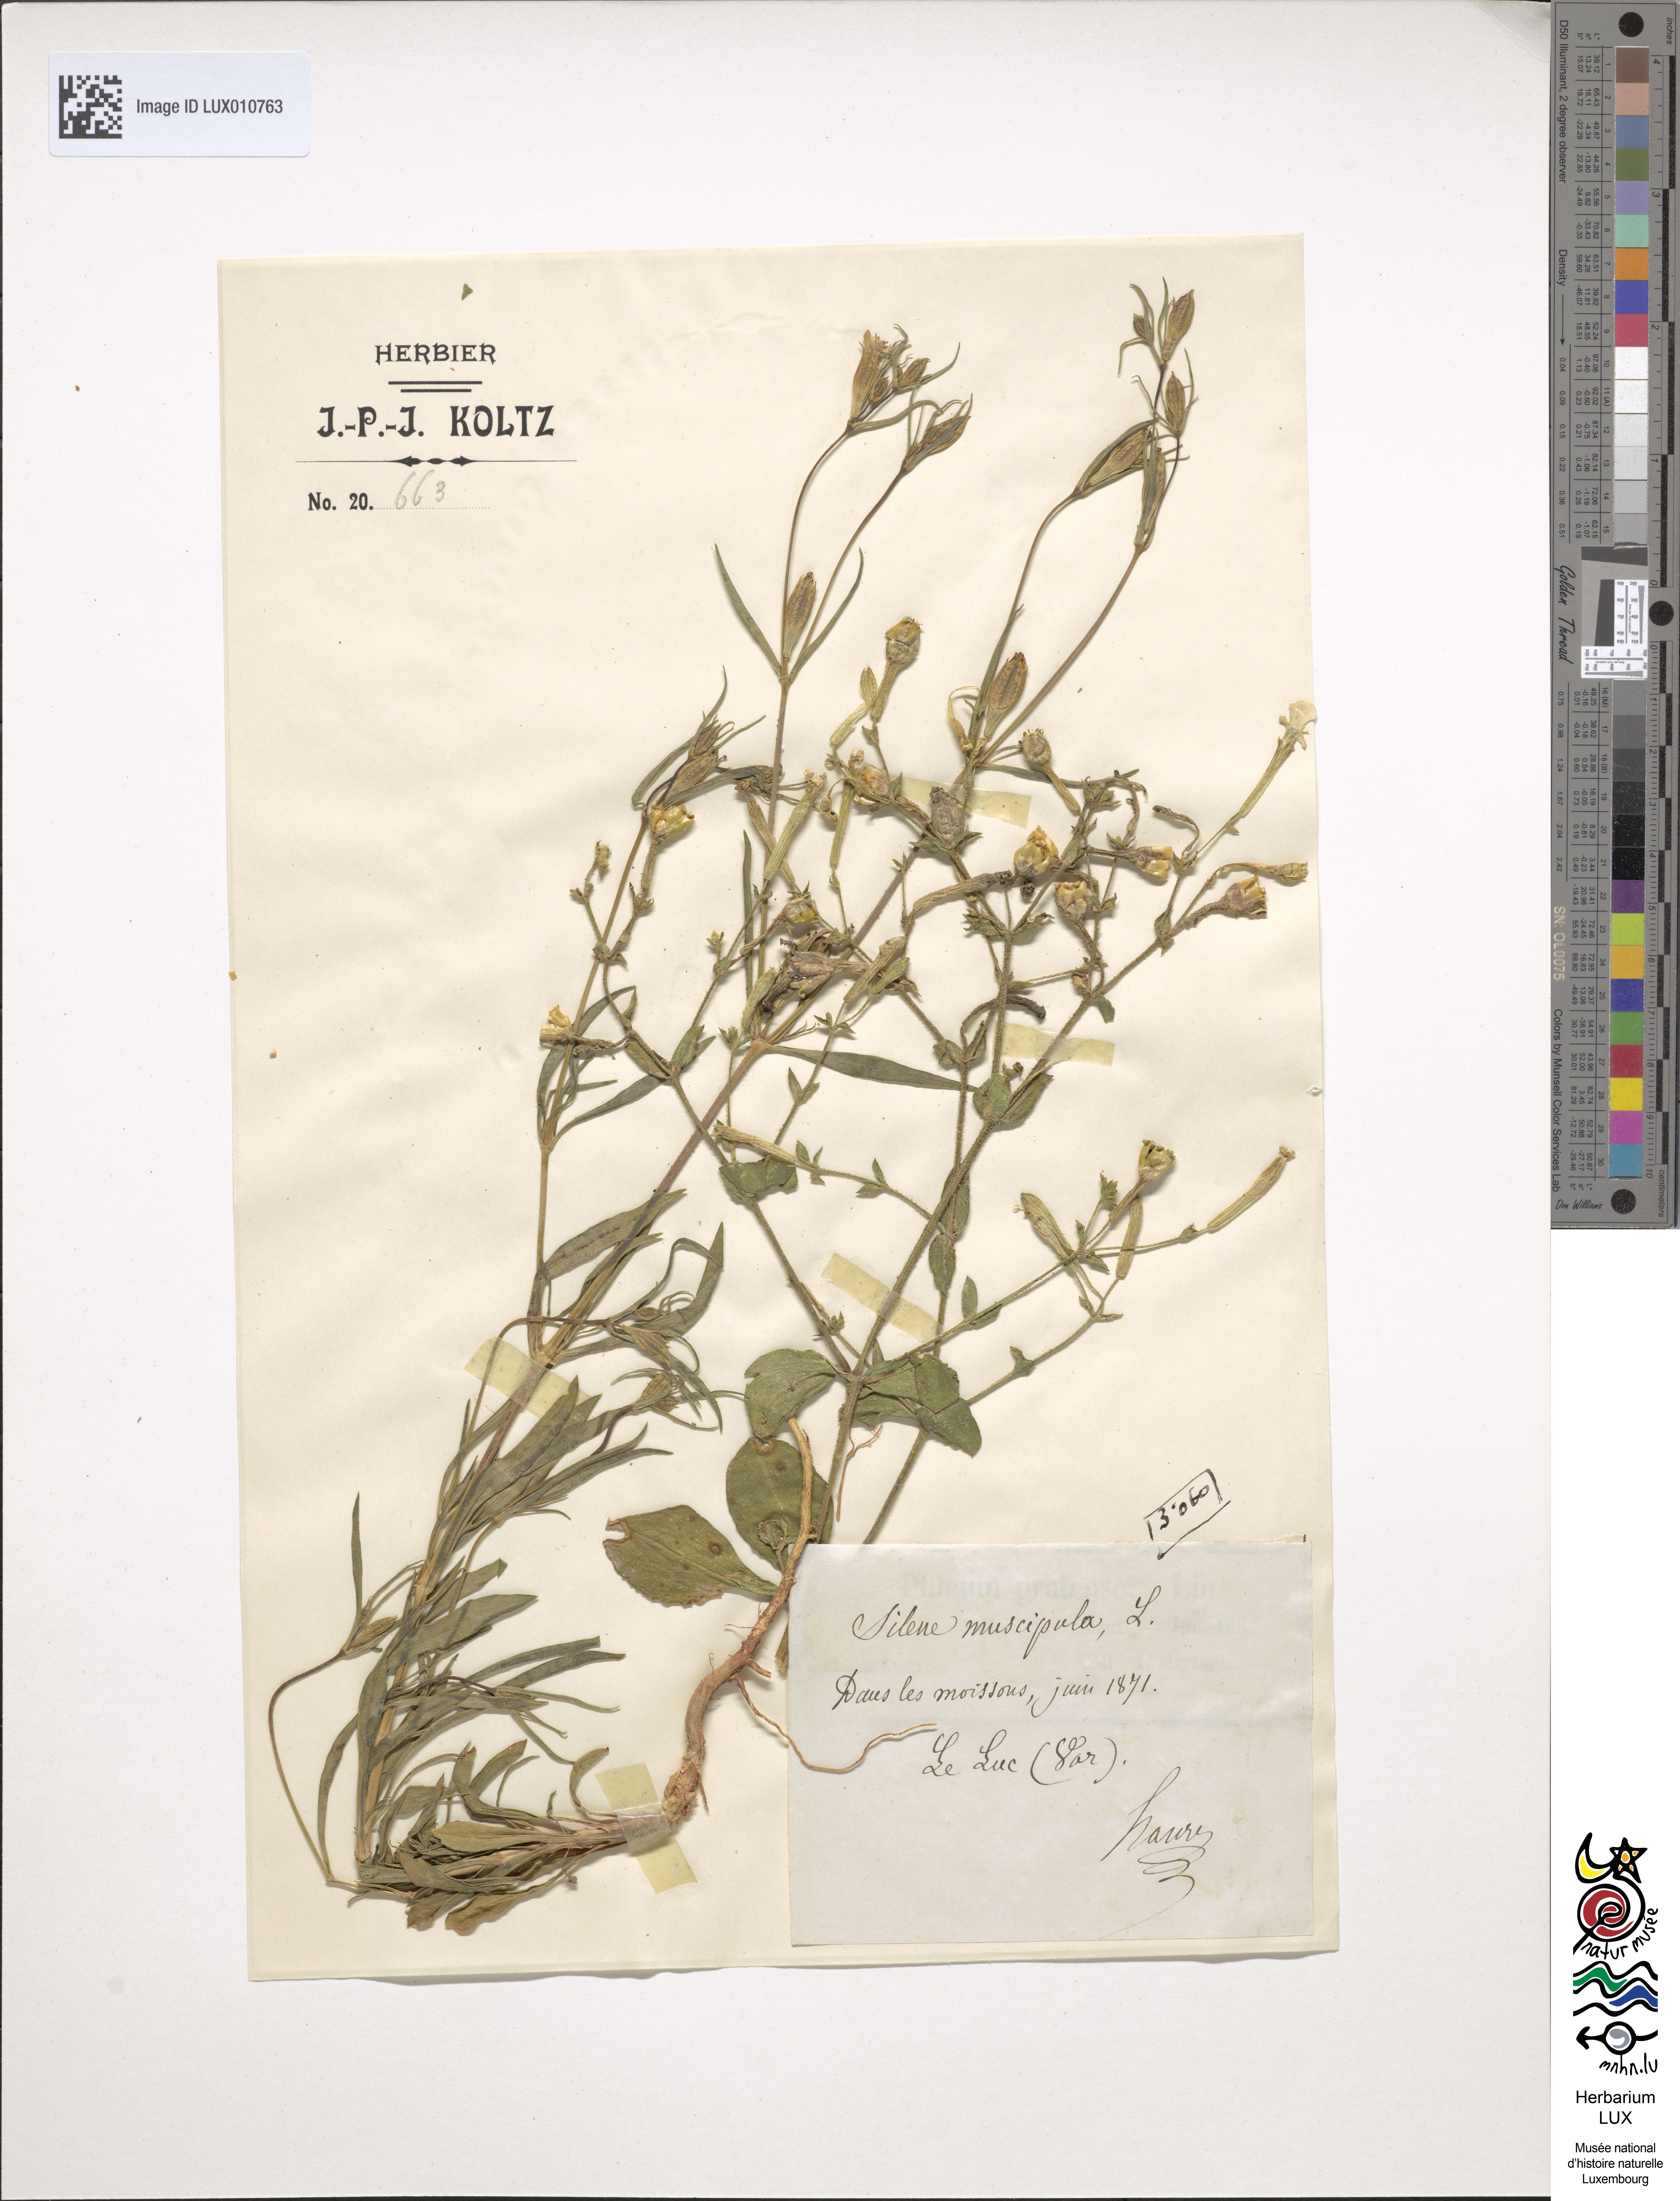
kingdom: Plantae
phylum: Tracheophyta
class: Magnoliopsida
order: Caryophyllales
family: Caryophyllaceae
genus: Silene
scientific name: Silene muscipula
